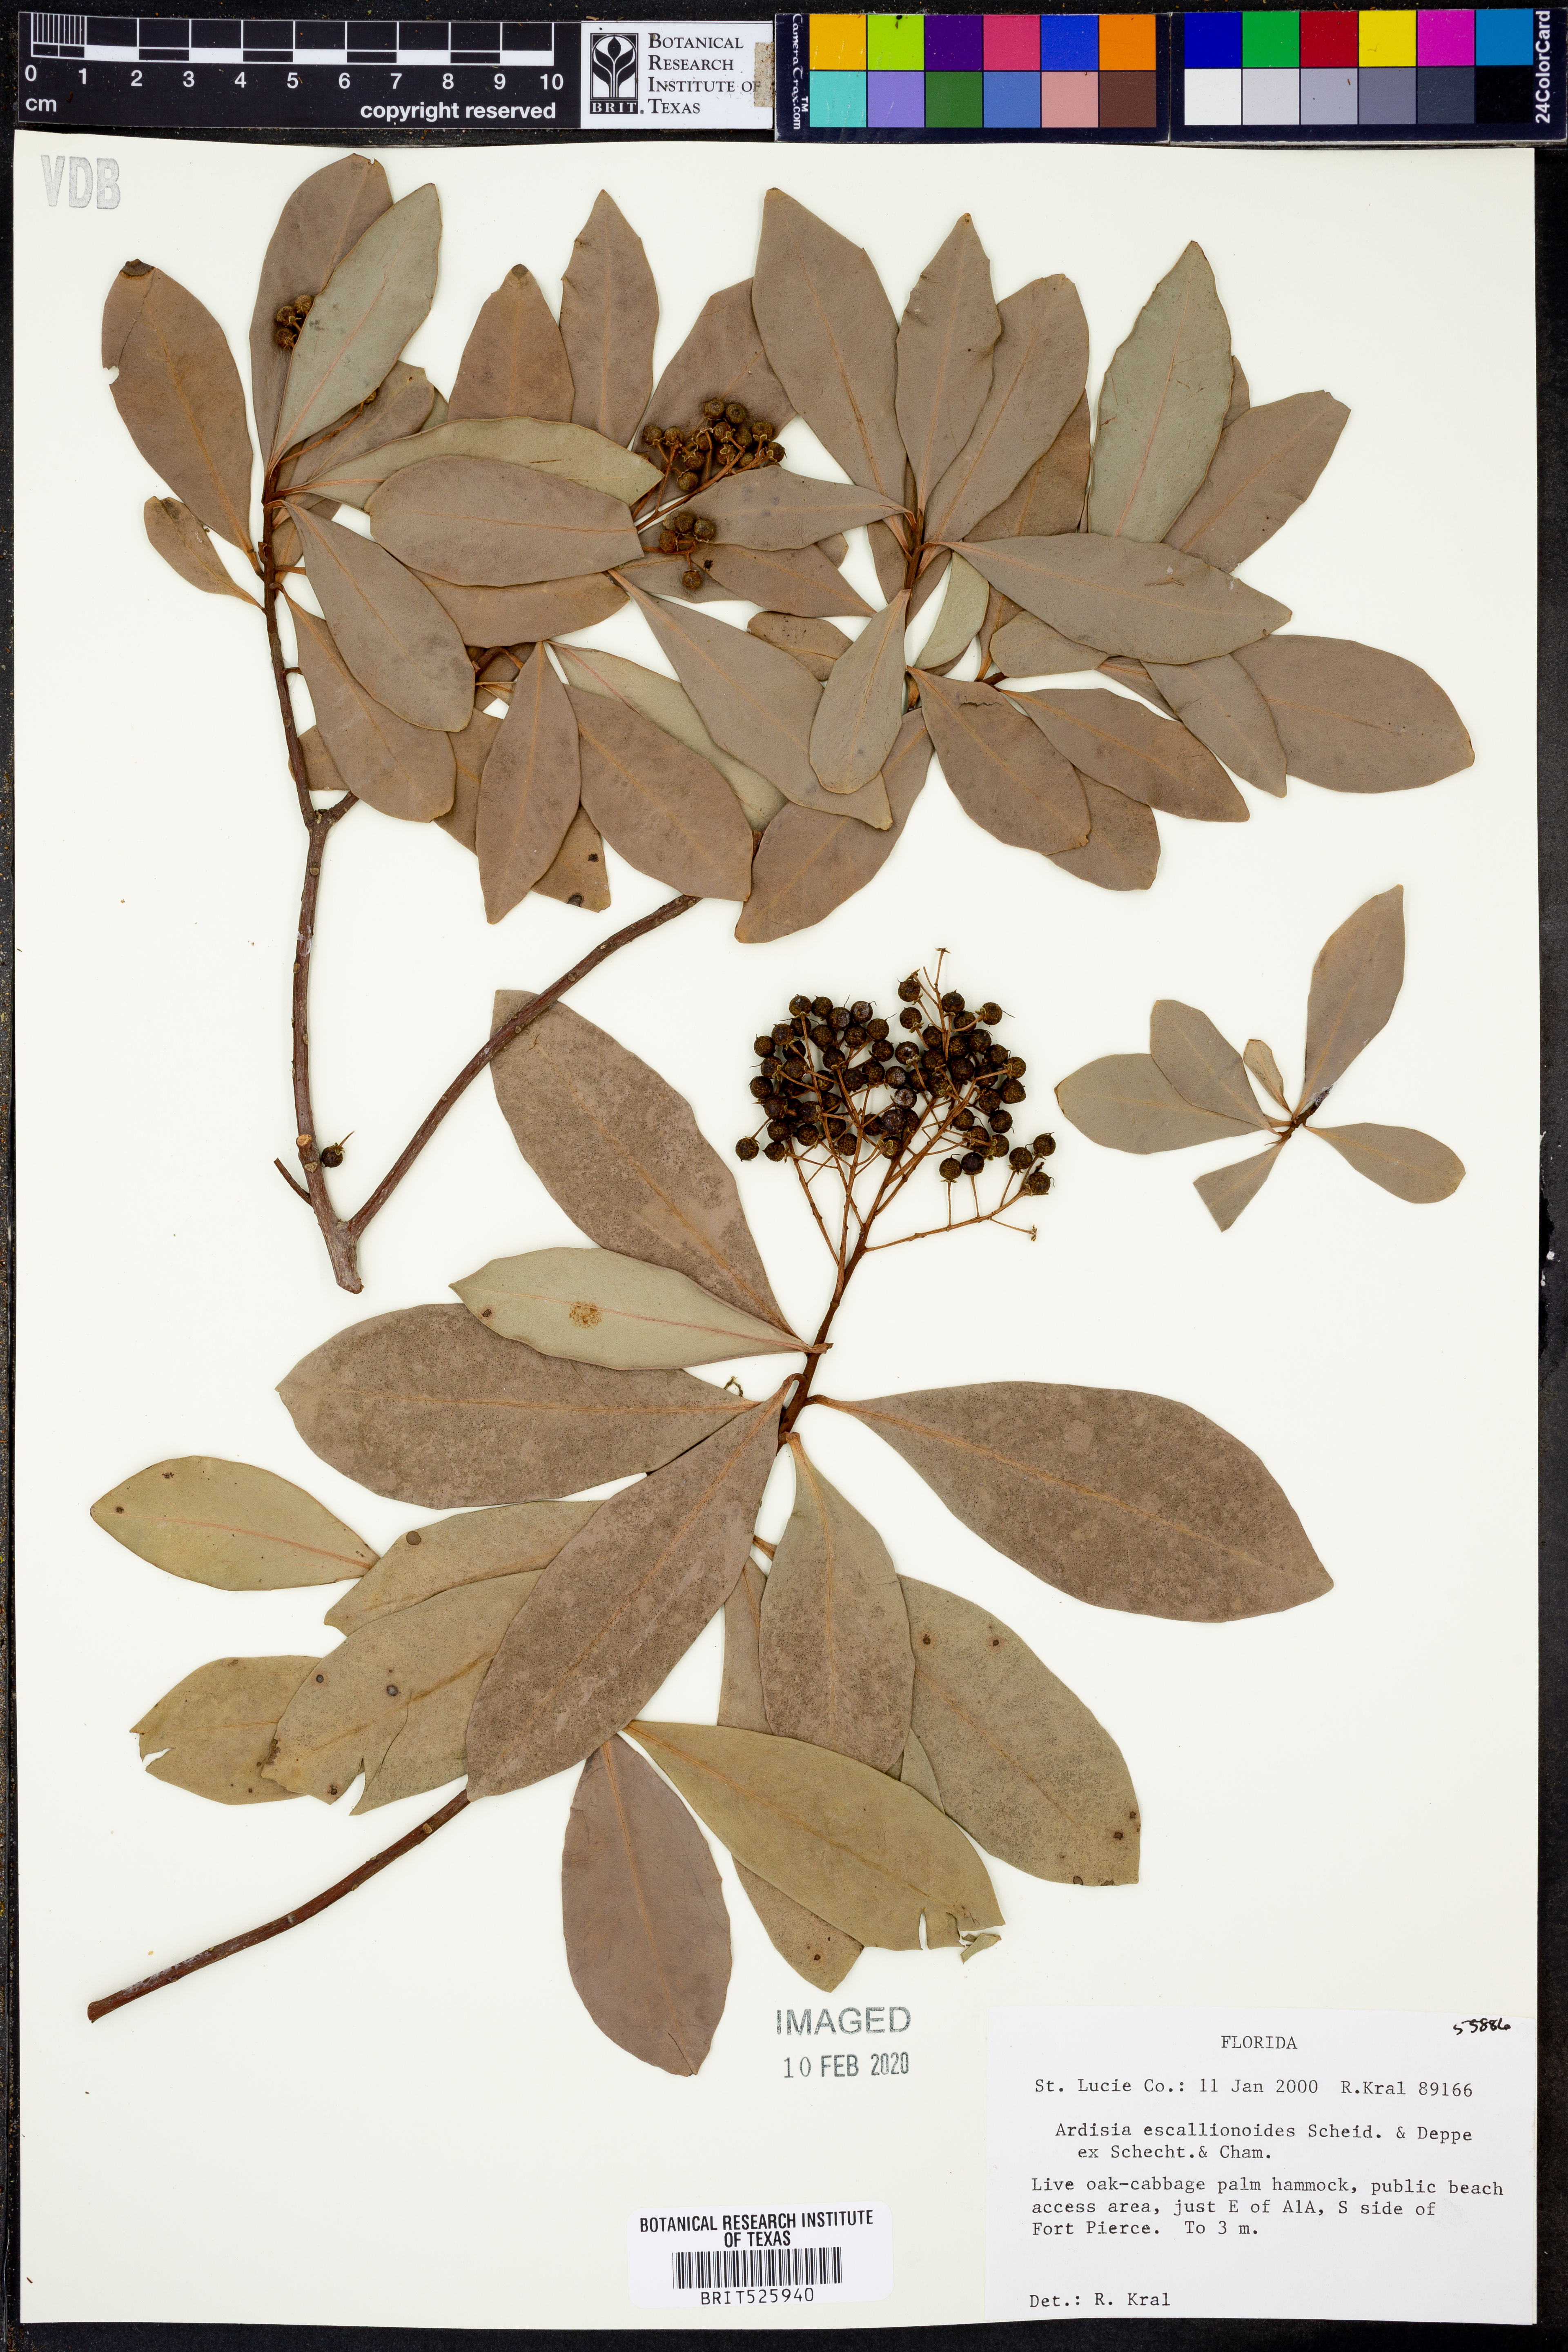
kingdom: Plantae
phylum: Tracheophyta
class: Magnoliopsida
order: Ericales
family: Primulaceae
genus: Ardisia
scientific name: Ardisia escallonioides
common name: Island marlberry
